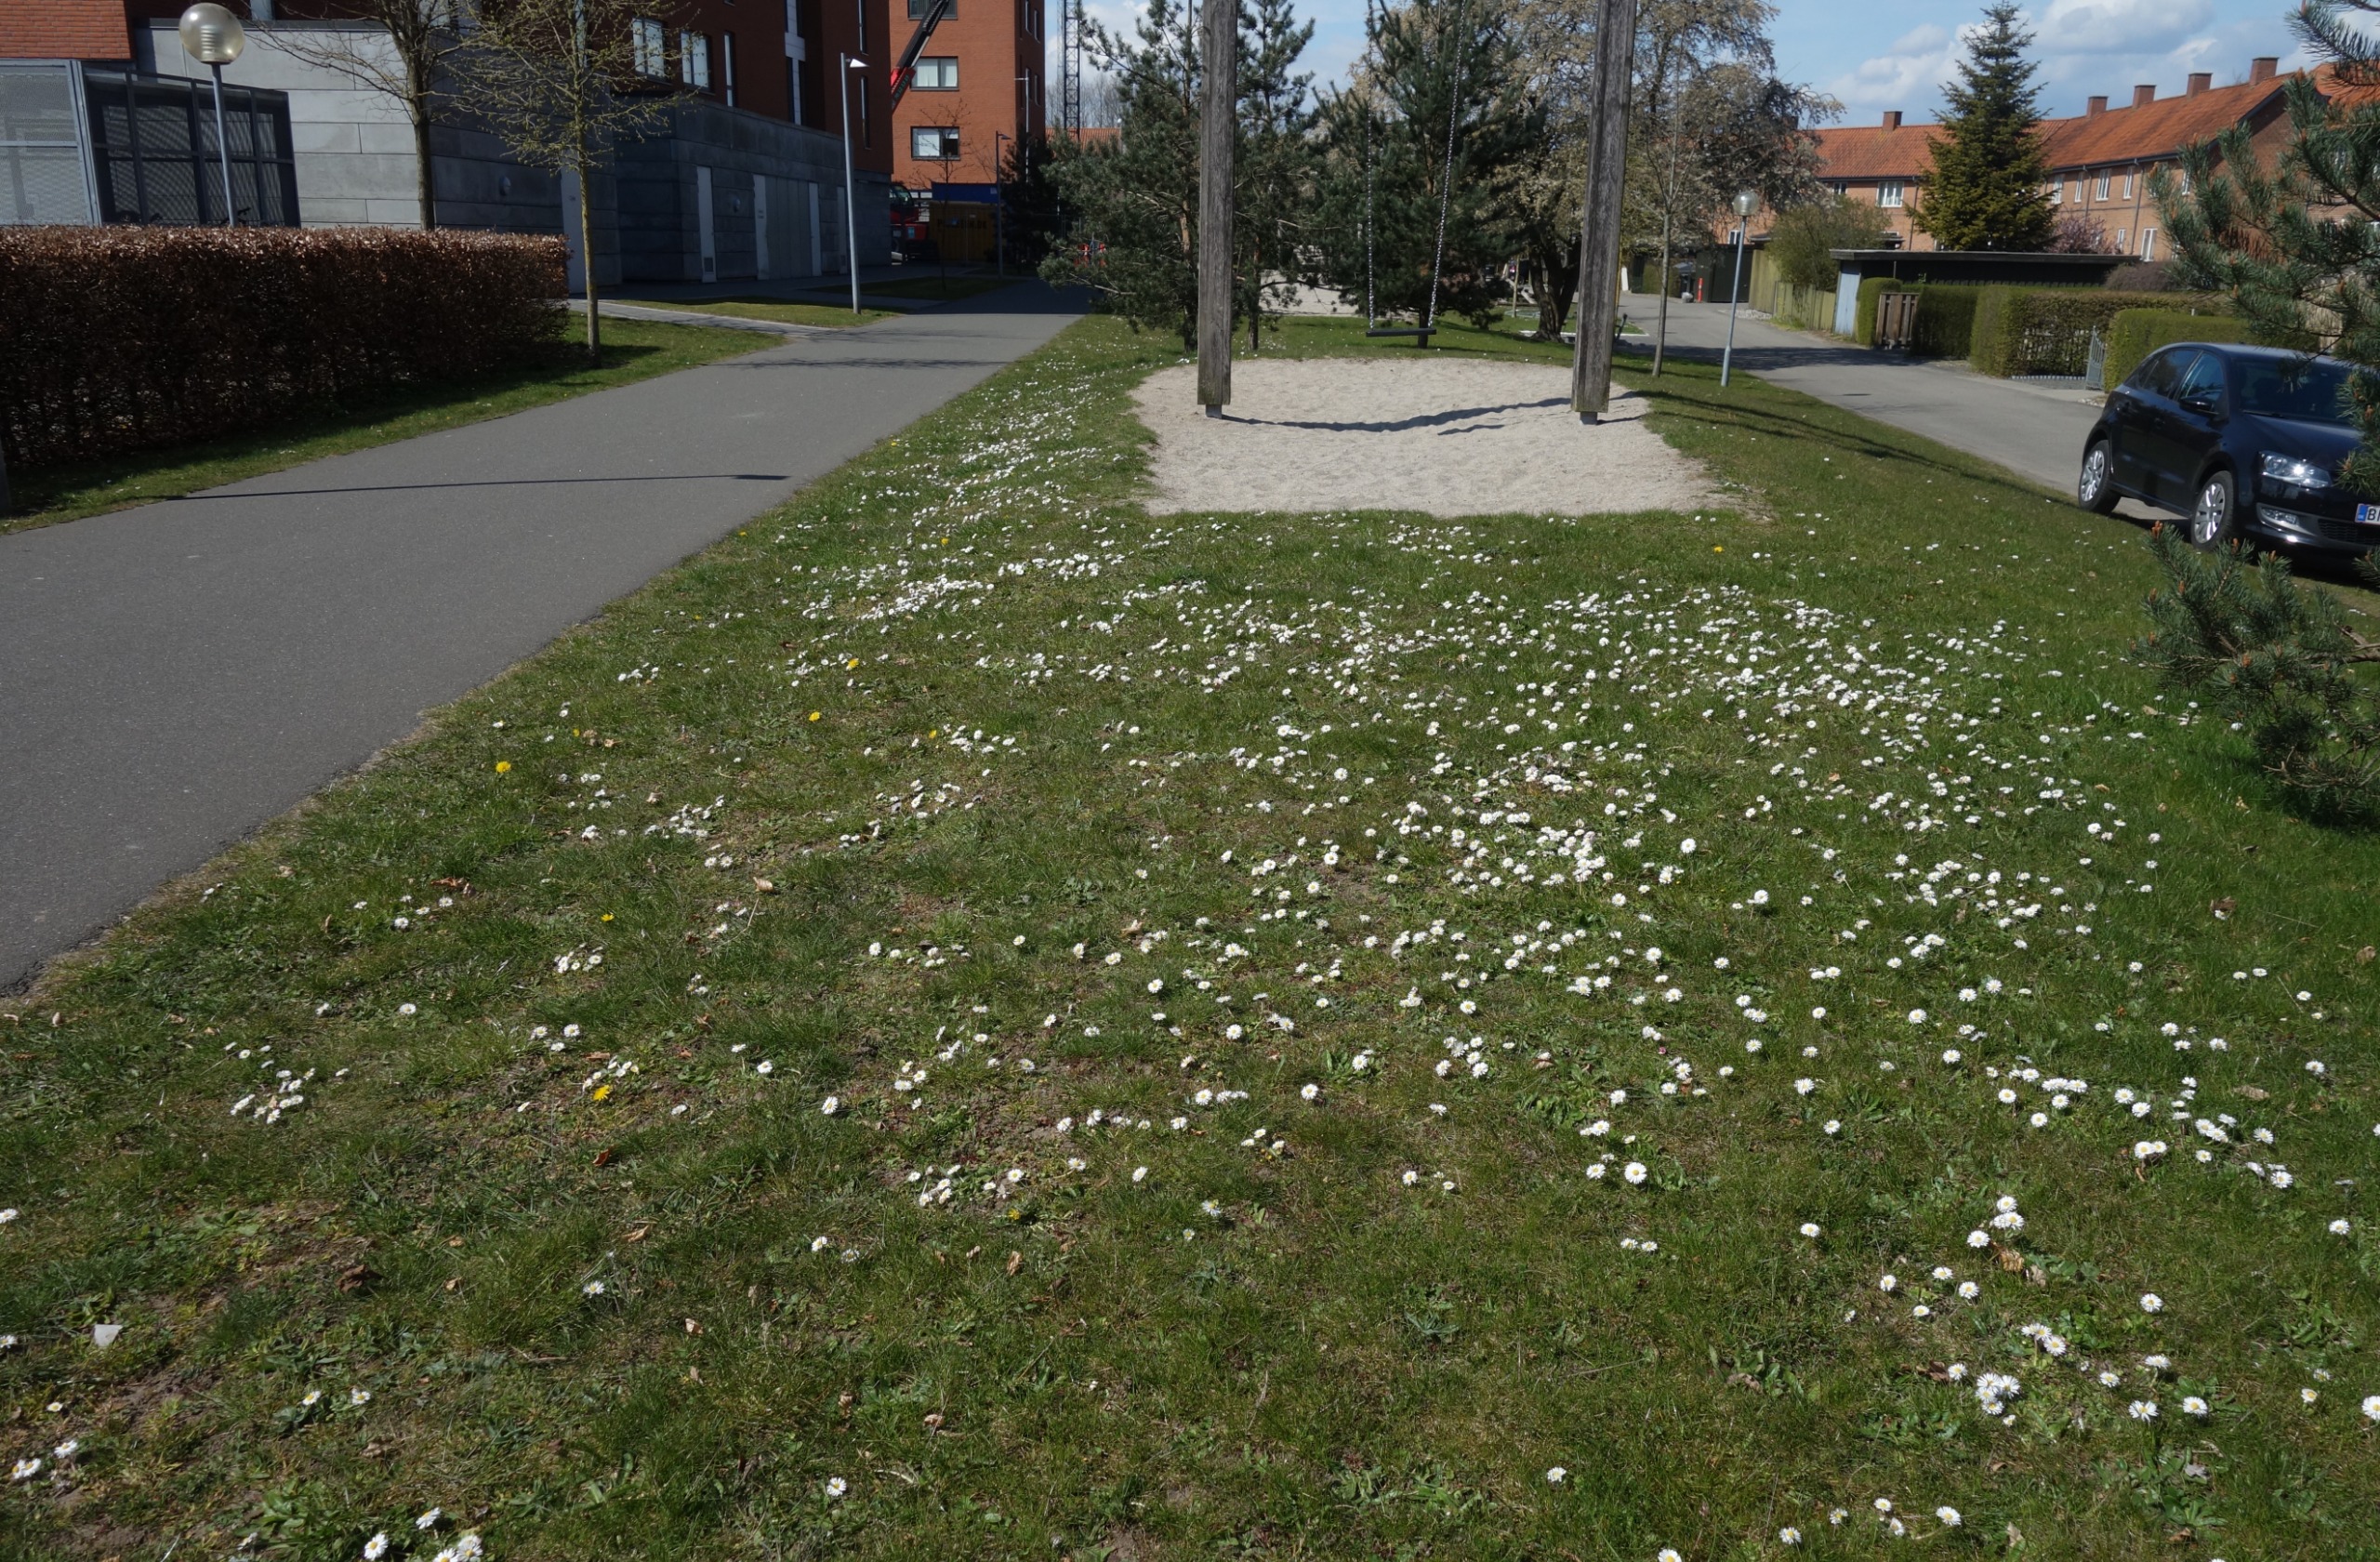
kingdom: Plantae
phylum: Tracheophyta
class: Magnoliopsida
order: Asterales
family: Asteraceae
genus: Bellis
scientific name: Bellis perennis
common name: Tusindfryd
